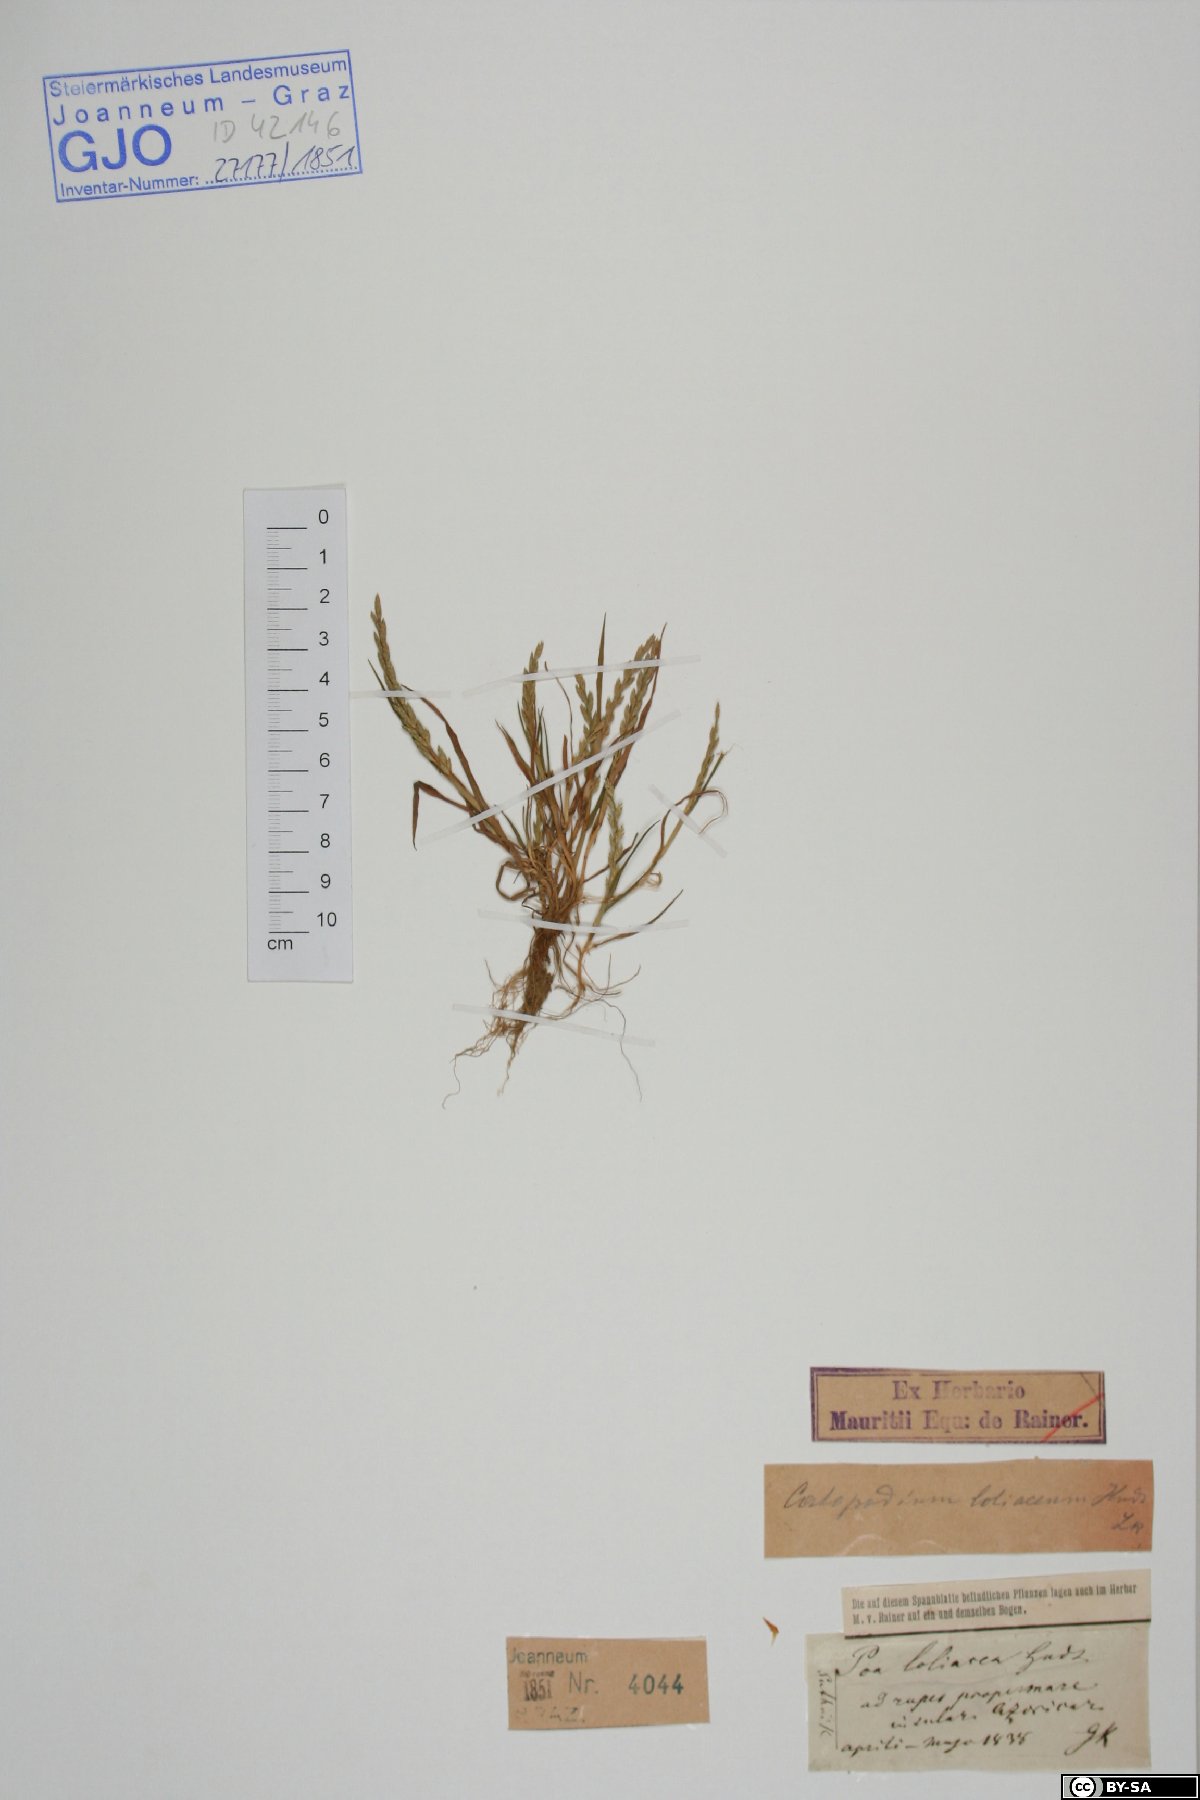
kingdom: Plantae
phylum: Tracheophyta
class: Liliopsida
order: Poales
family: Poaceae
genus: Catapodium
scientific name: Catapodium marinum
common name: Sea fern-grass
